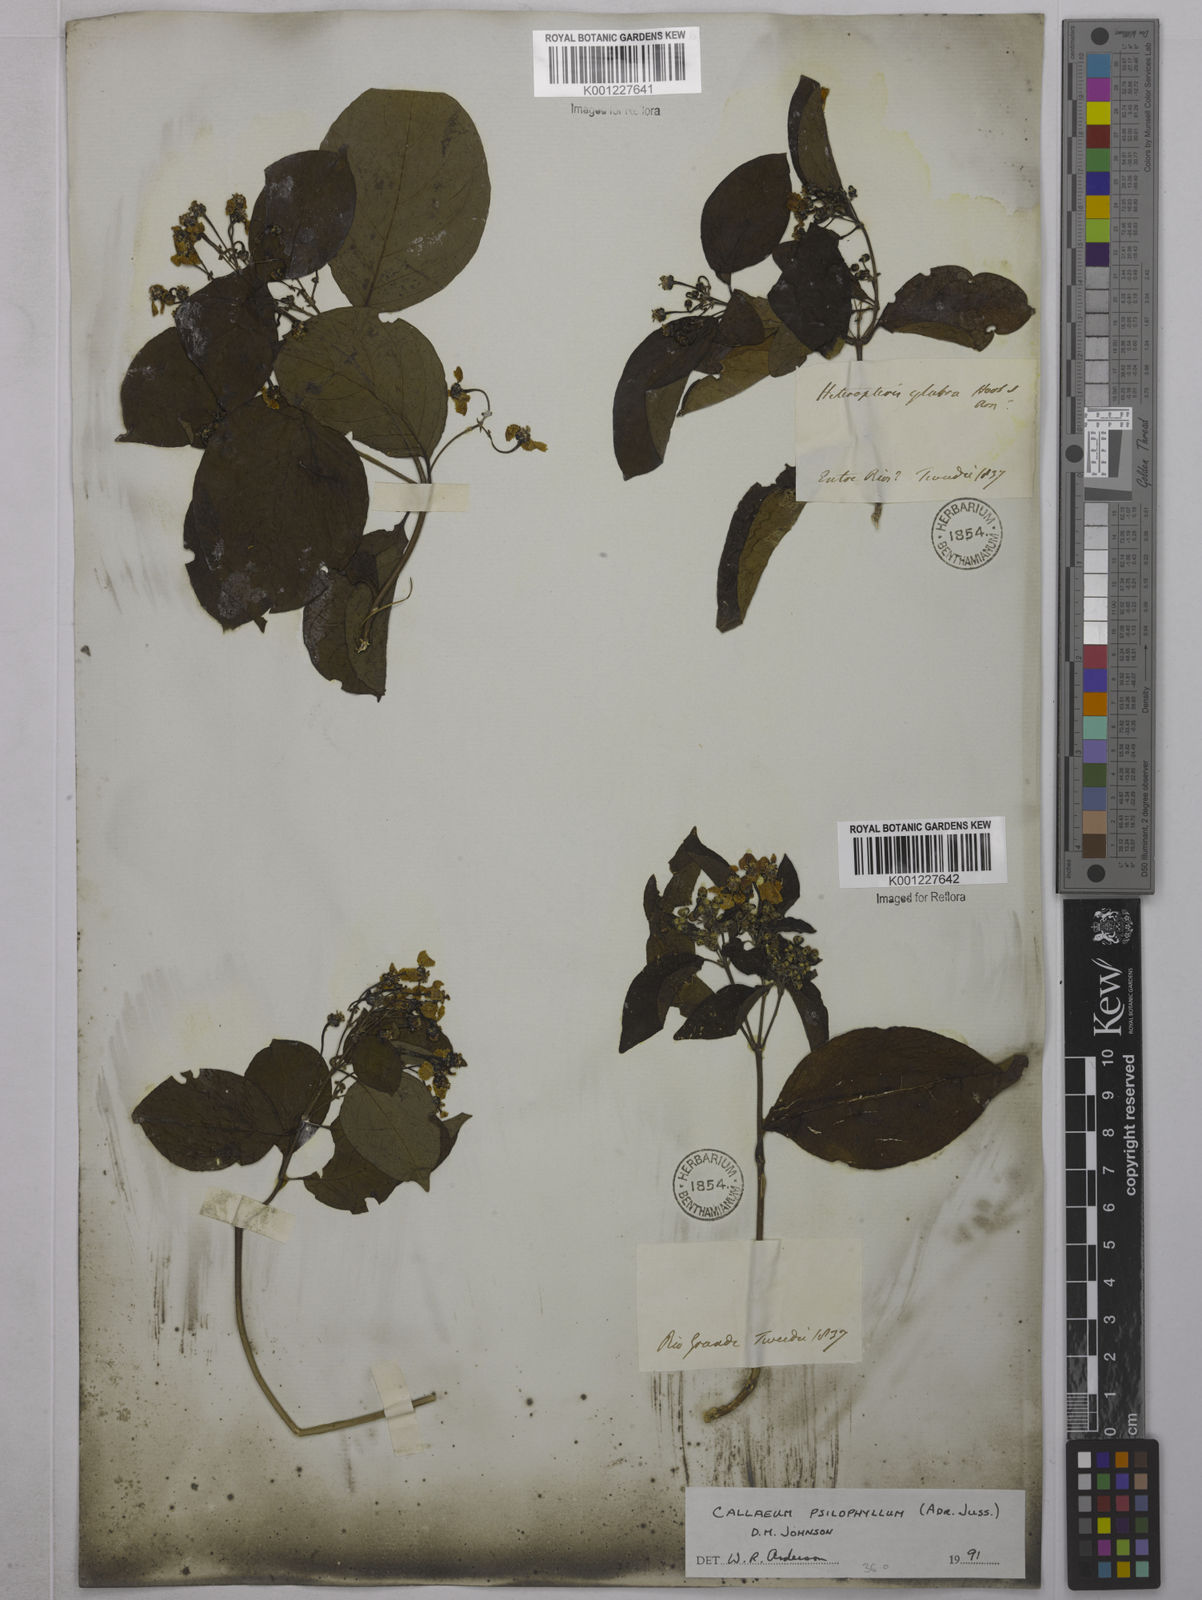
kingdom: Plantae
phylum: Tracheophyta
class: Magnoliopsida
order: Malpighiales
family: Malpighiaceae
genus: Callaeum
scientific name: Callaeum psilophyllum
